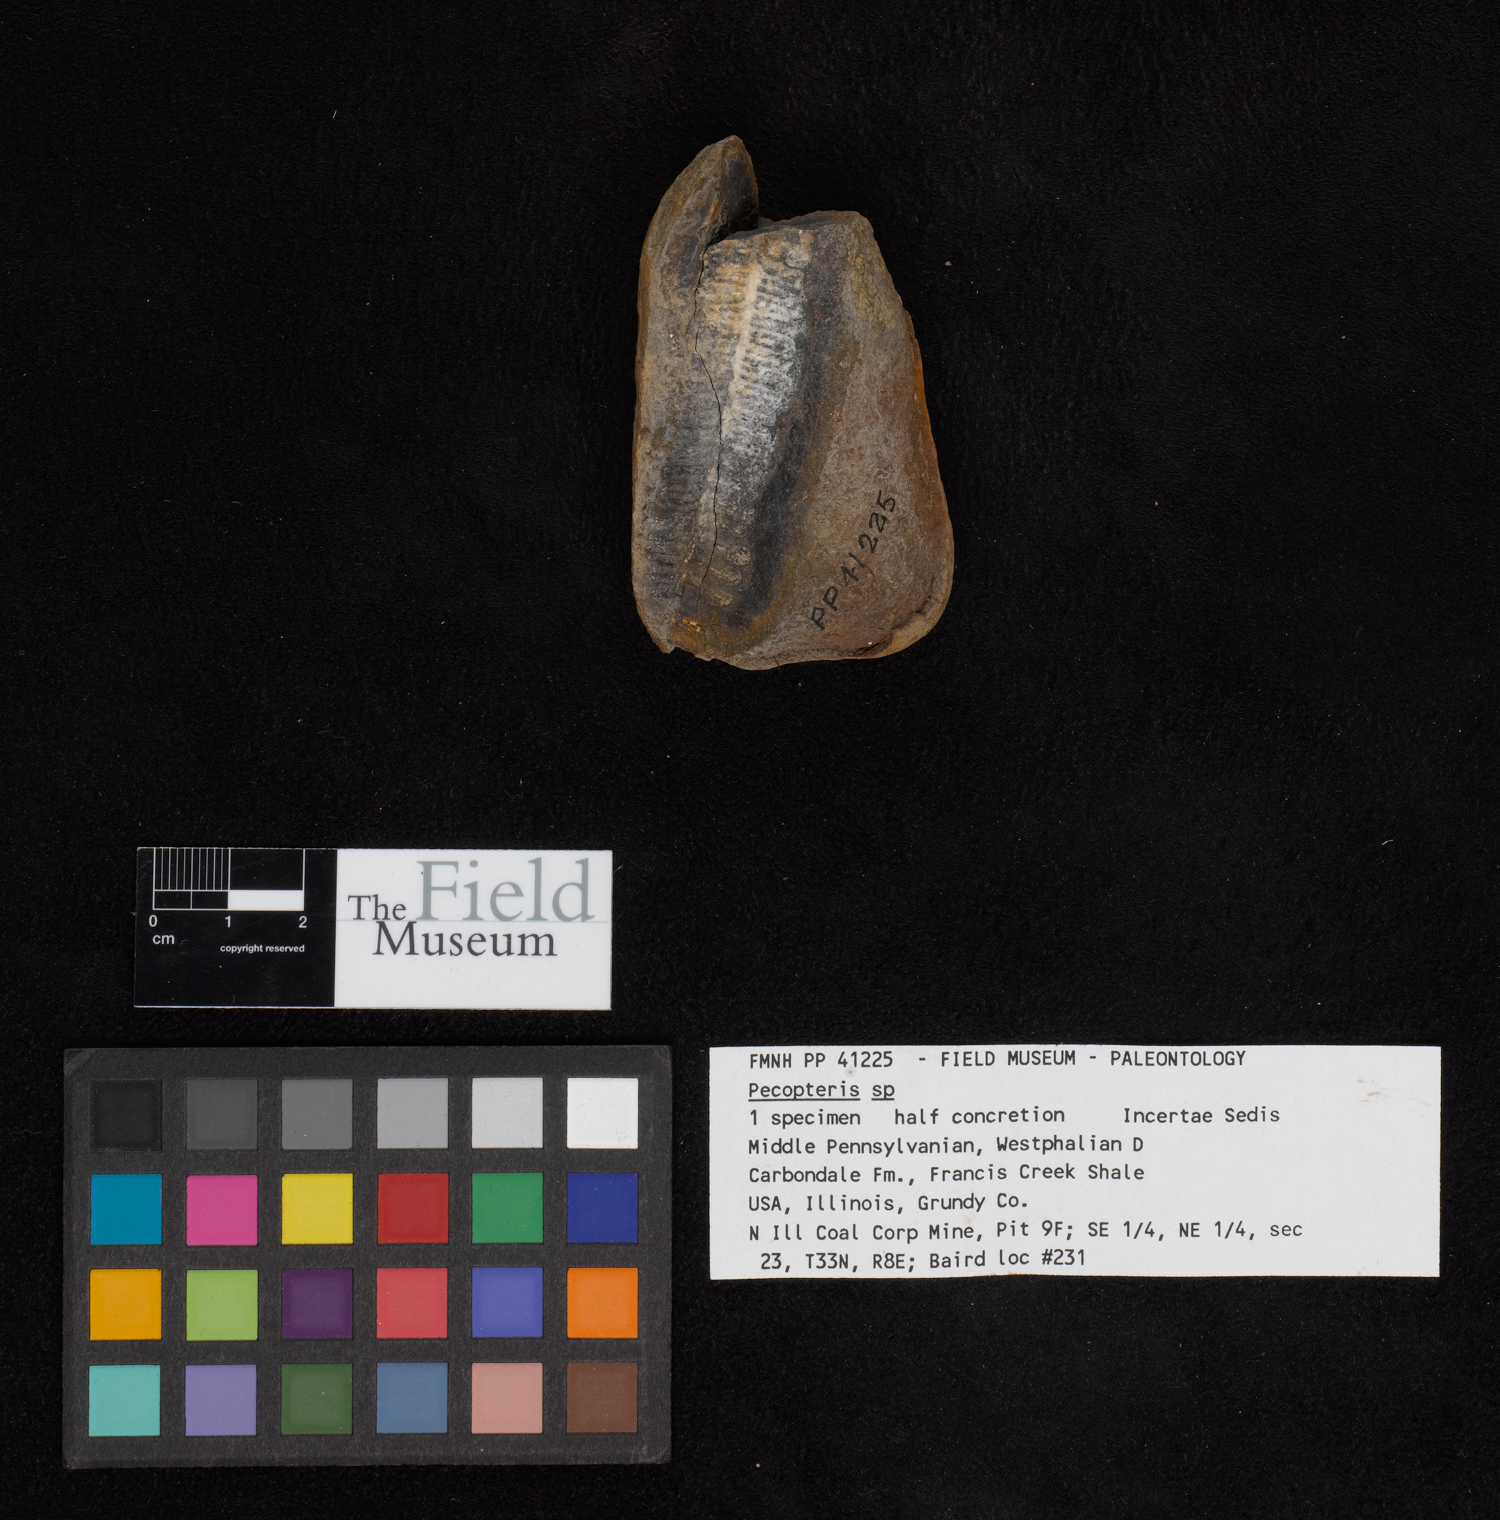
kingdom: Plantae
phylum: Tracheophyta
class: Polypodiopsida
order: Marattiales
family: Asterothecaceae
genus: Pecopteris
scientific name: Pecopteris
